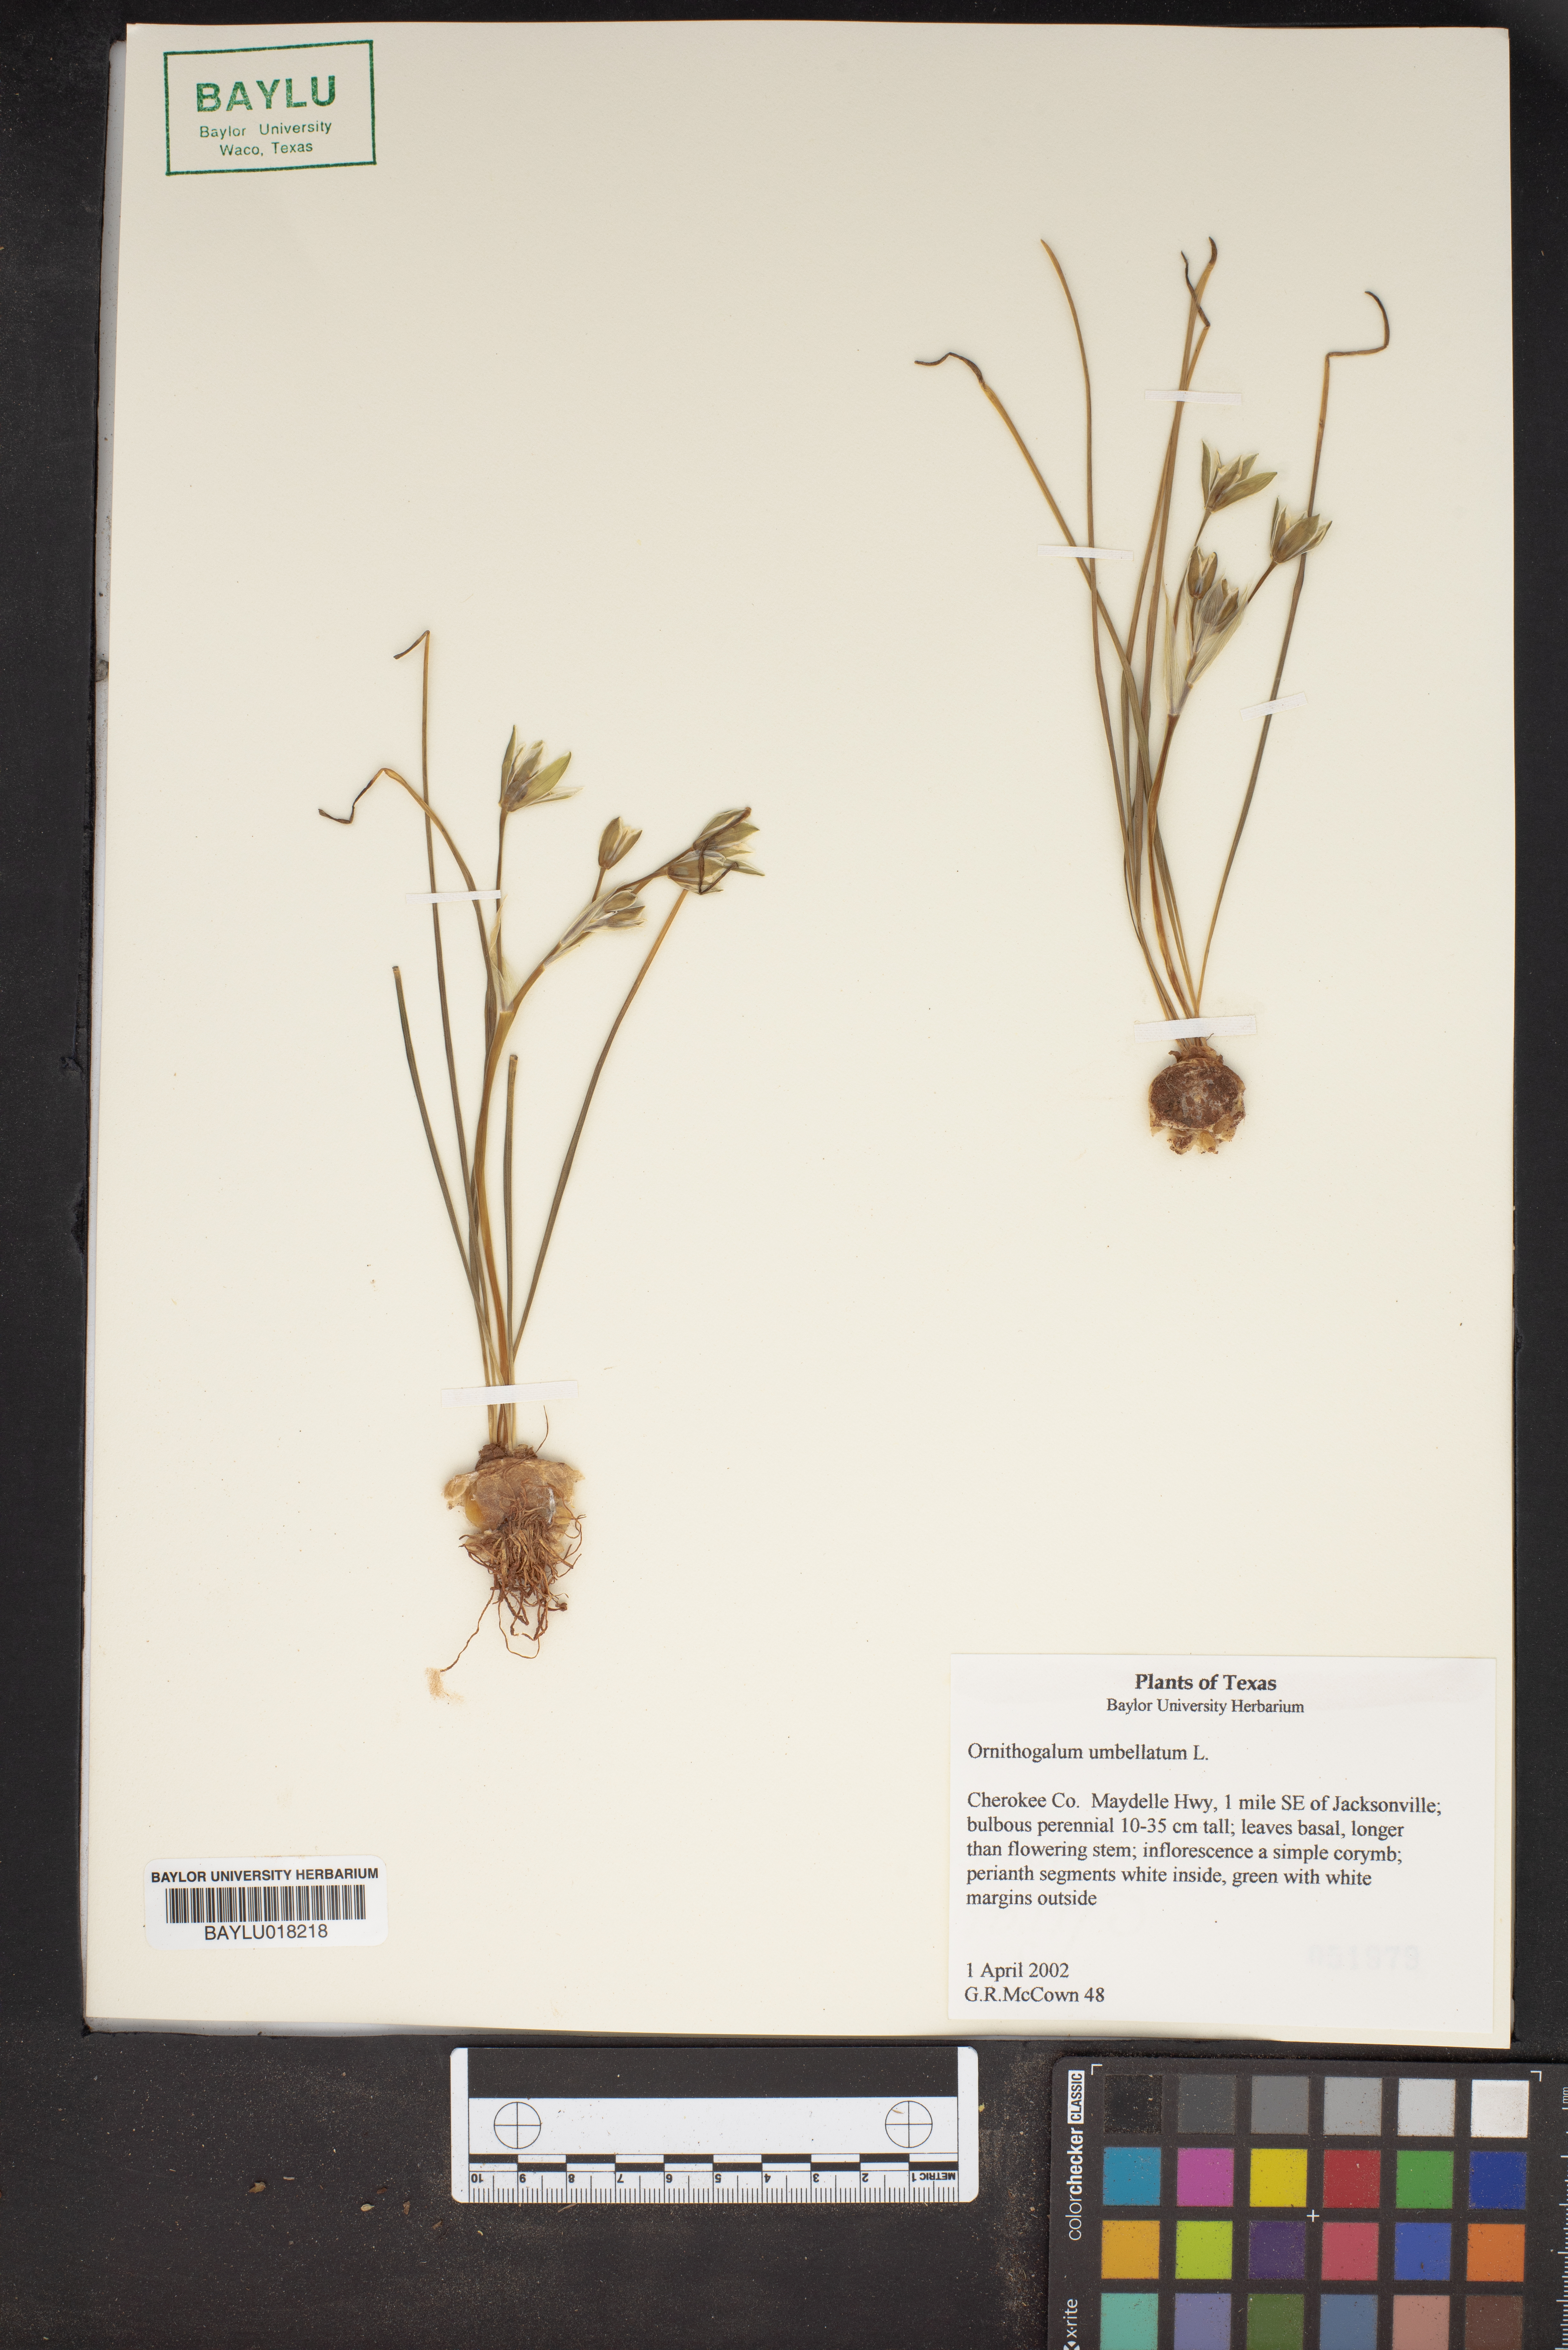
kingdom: Plantae
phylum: Tracheophyta
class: Liliopsida
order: Asparagales
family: Asparagaceae
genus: Ornithogalum
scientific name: Ornithogalum umbellatum
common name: Garden star-of-bethlehem
